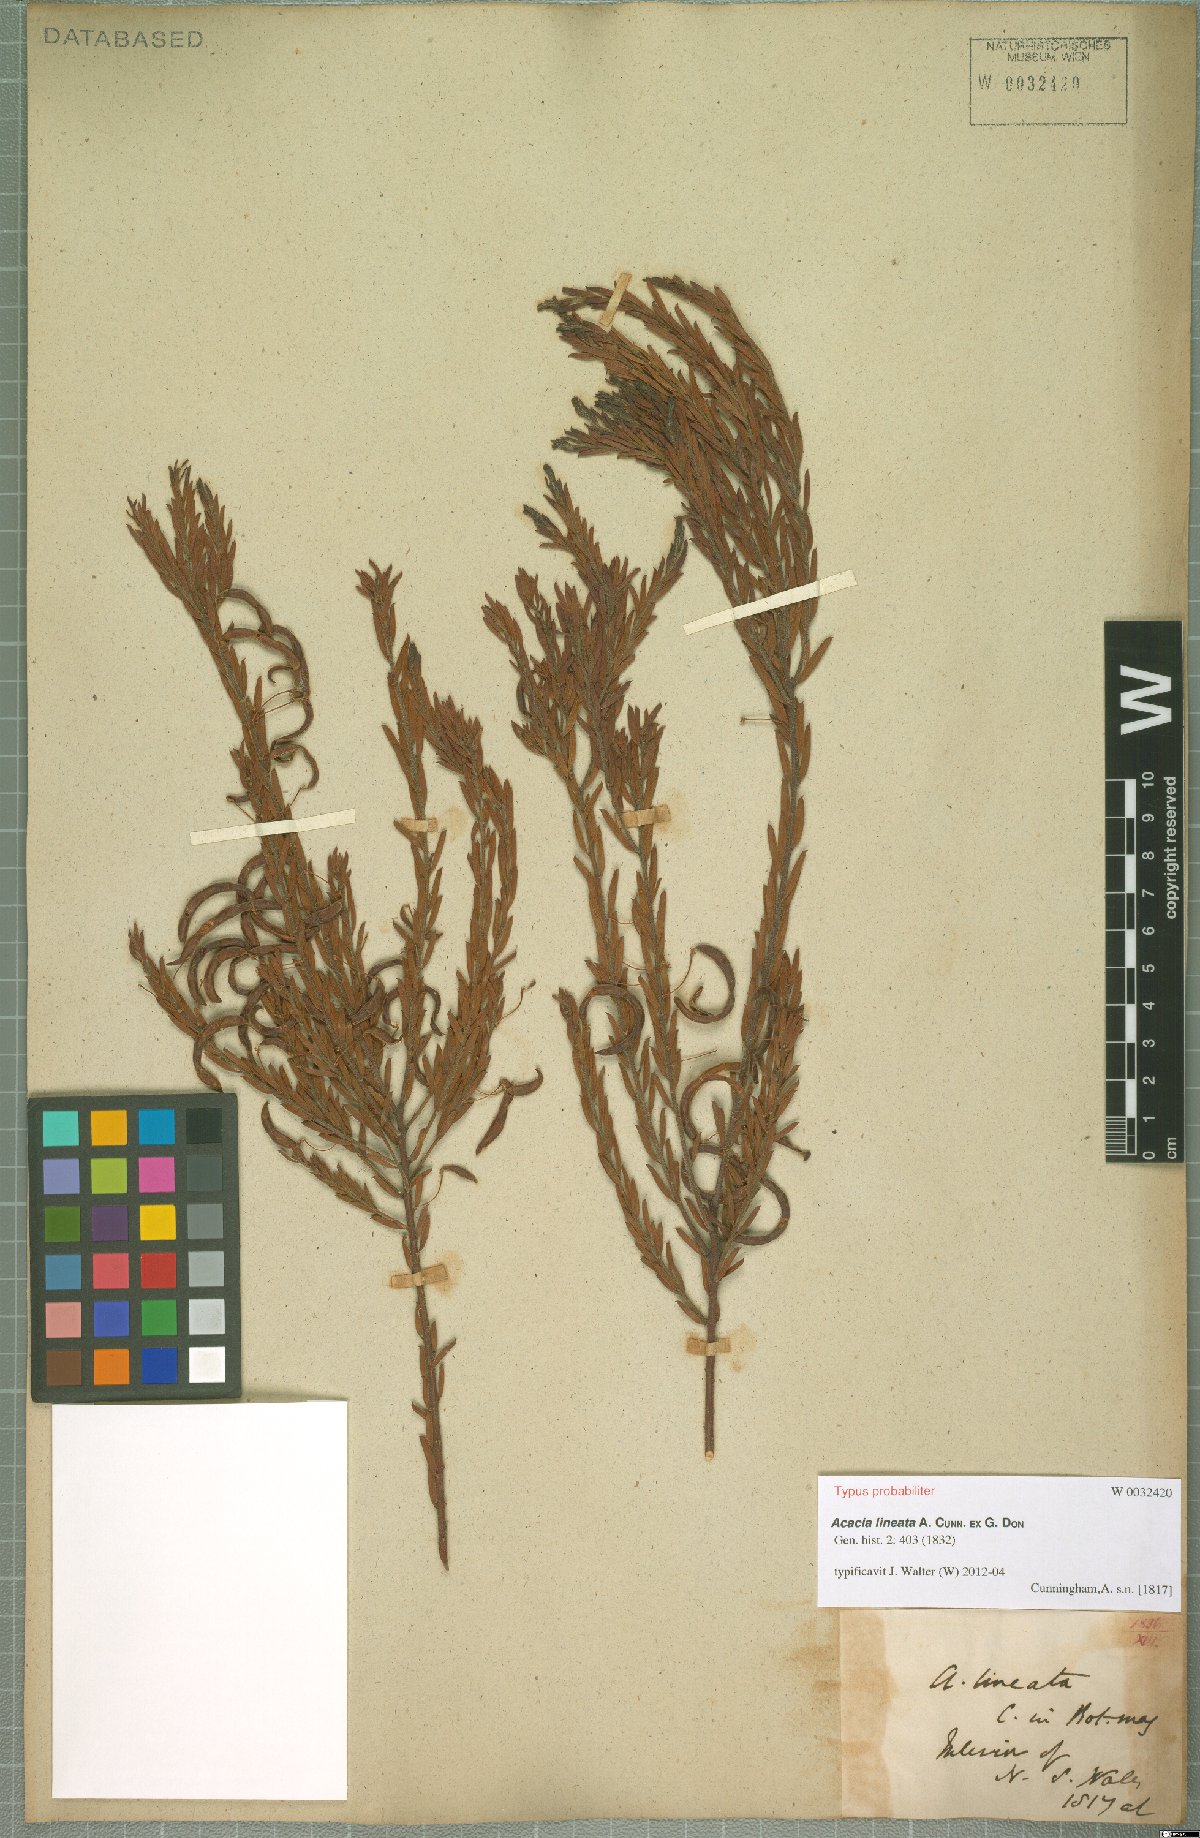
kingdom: Plantae
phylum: Tracheophyta
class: Magnoliopsida
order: Fabales
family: Fabaceae
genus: Acacia
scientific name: Acacia lineata
